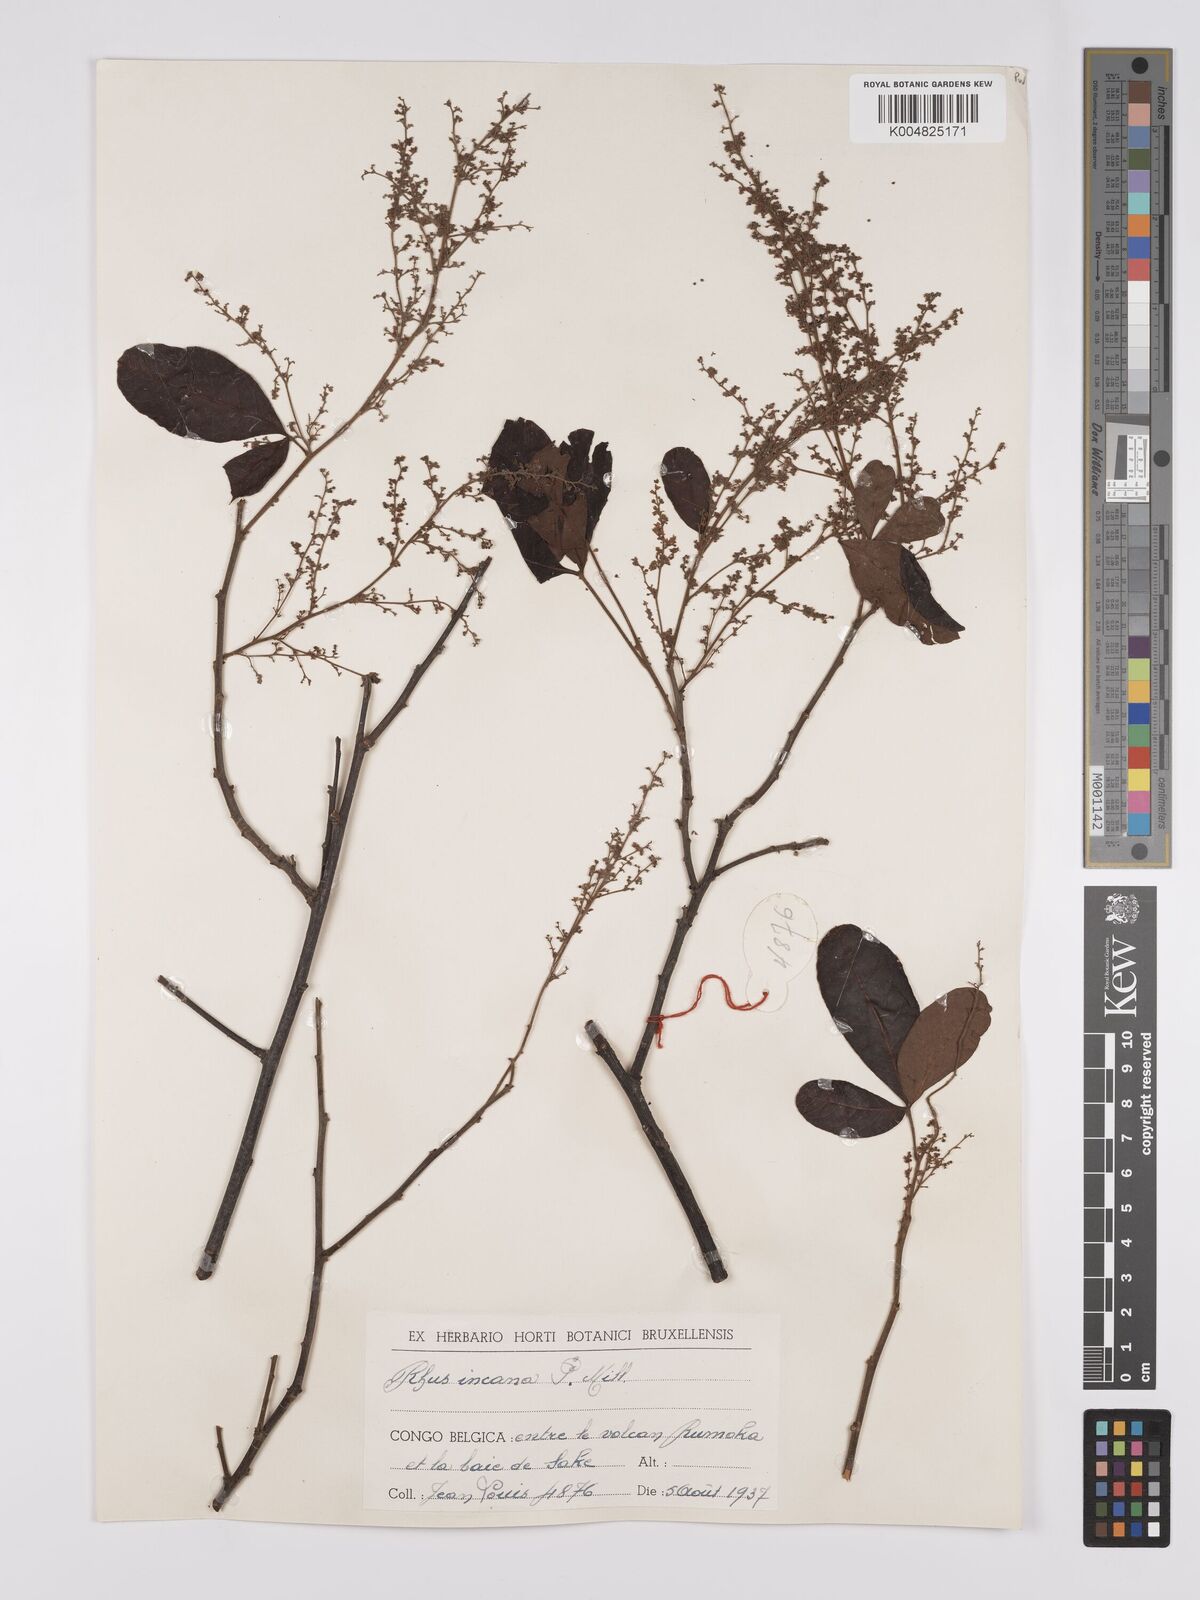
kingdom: Plantae
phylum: Tracheophyta
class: Magnoliopsida
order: Sapindales
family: Anacardiaceae
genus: Searsia
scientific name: Searsia longipes
